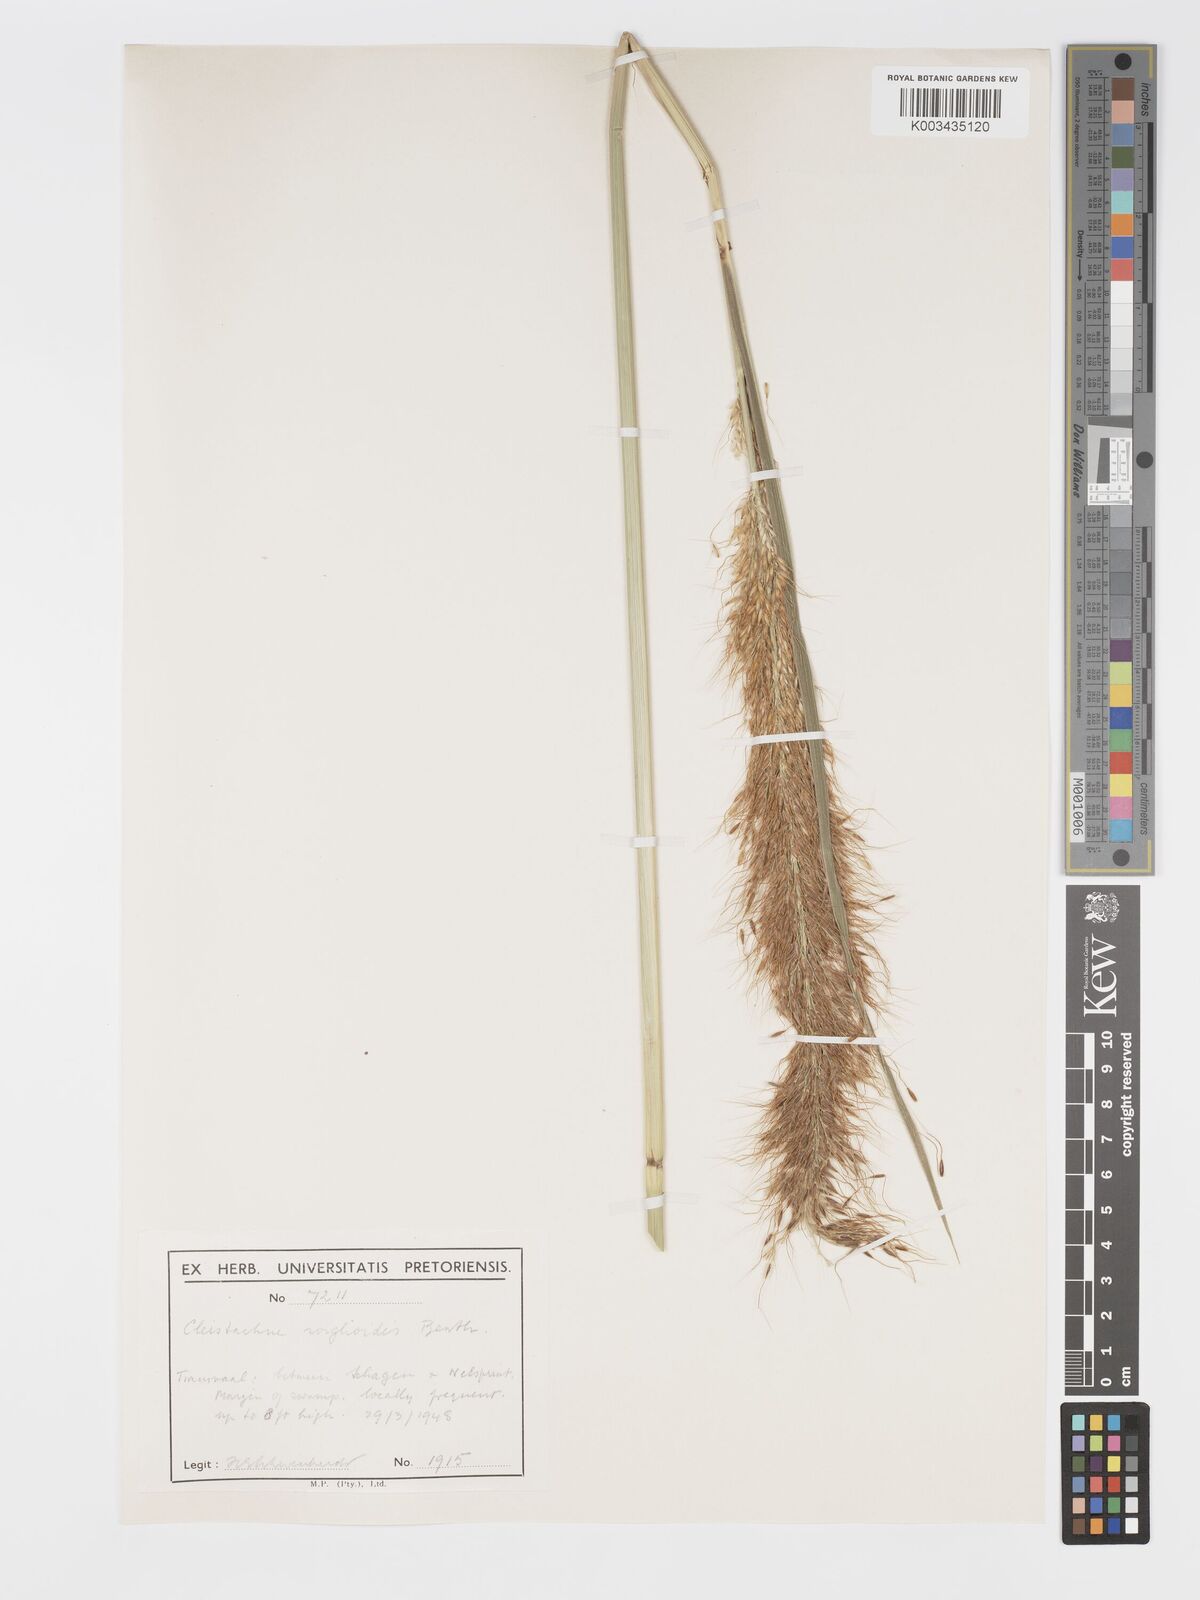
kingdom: Plantae
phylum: Tracheophyta
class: Liliopsida
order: Poales
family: Poaceae
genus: Cleistachne
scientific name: Cleistachne sorghoides
